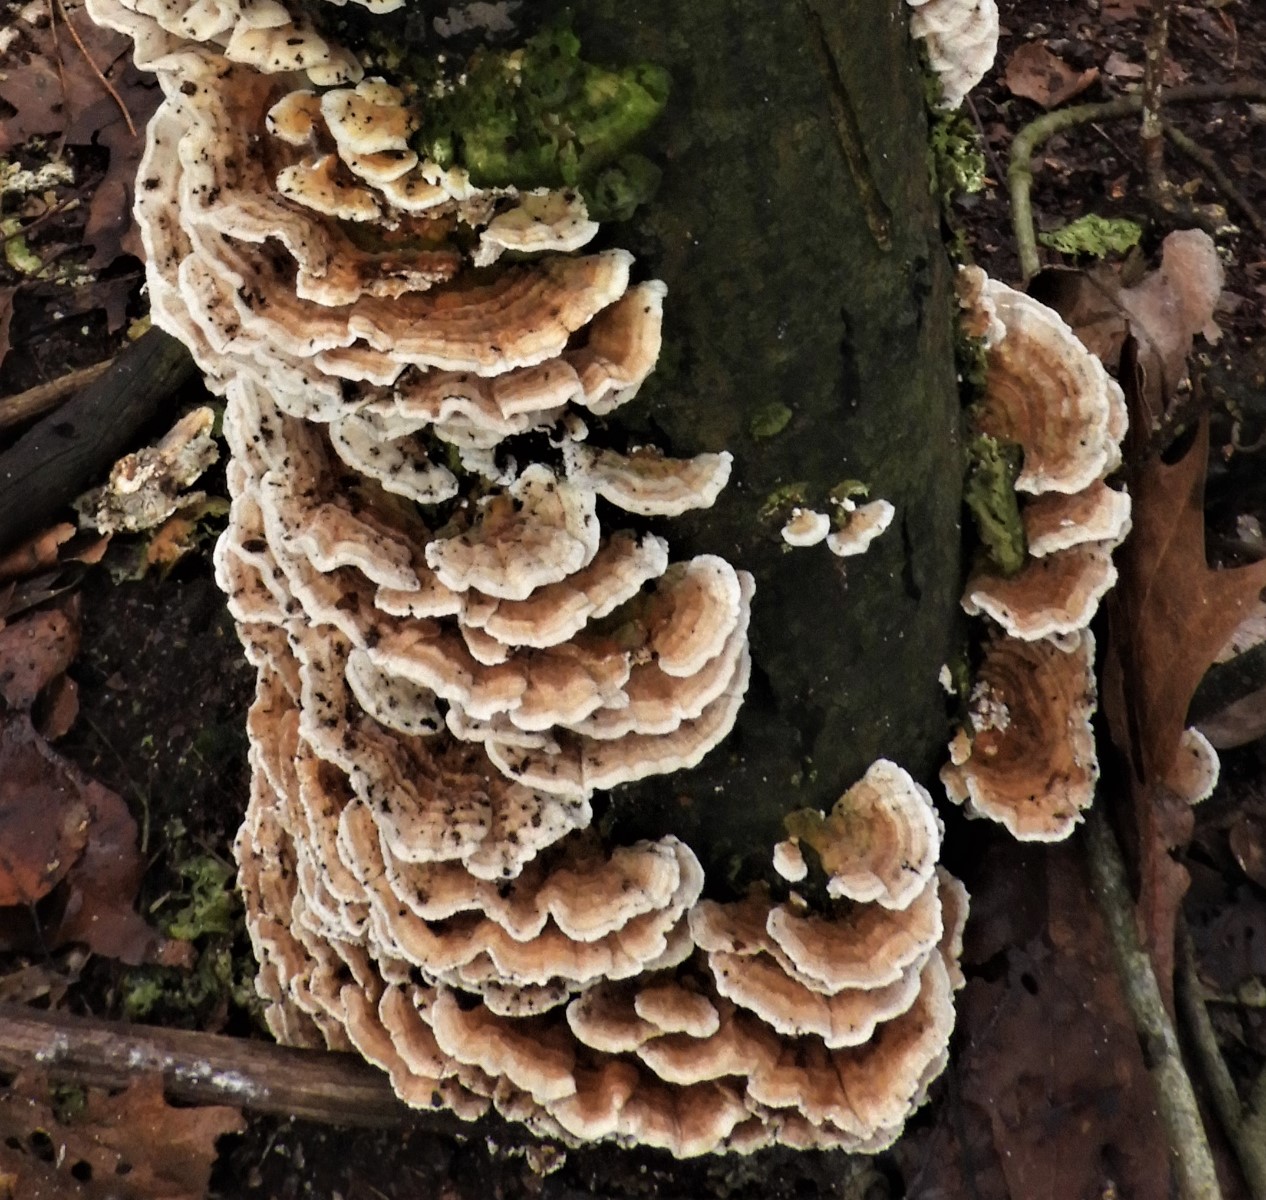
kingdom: Fungi
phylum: Basidiomycota
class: Agaricomycetes
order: Polyporales
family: Polyporaceae
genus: Trametes
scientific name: Trametes versicolor
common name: broget læderporesvamp
